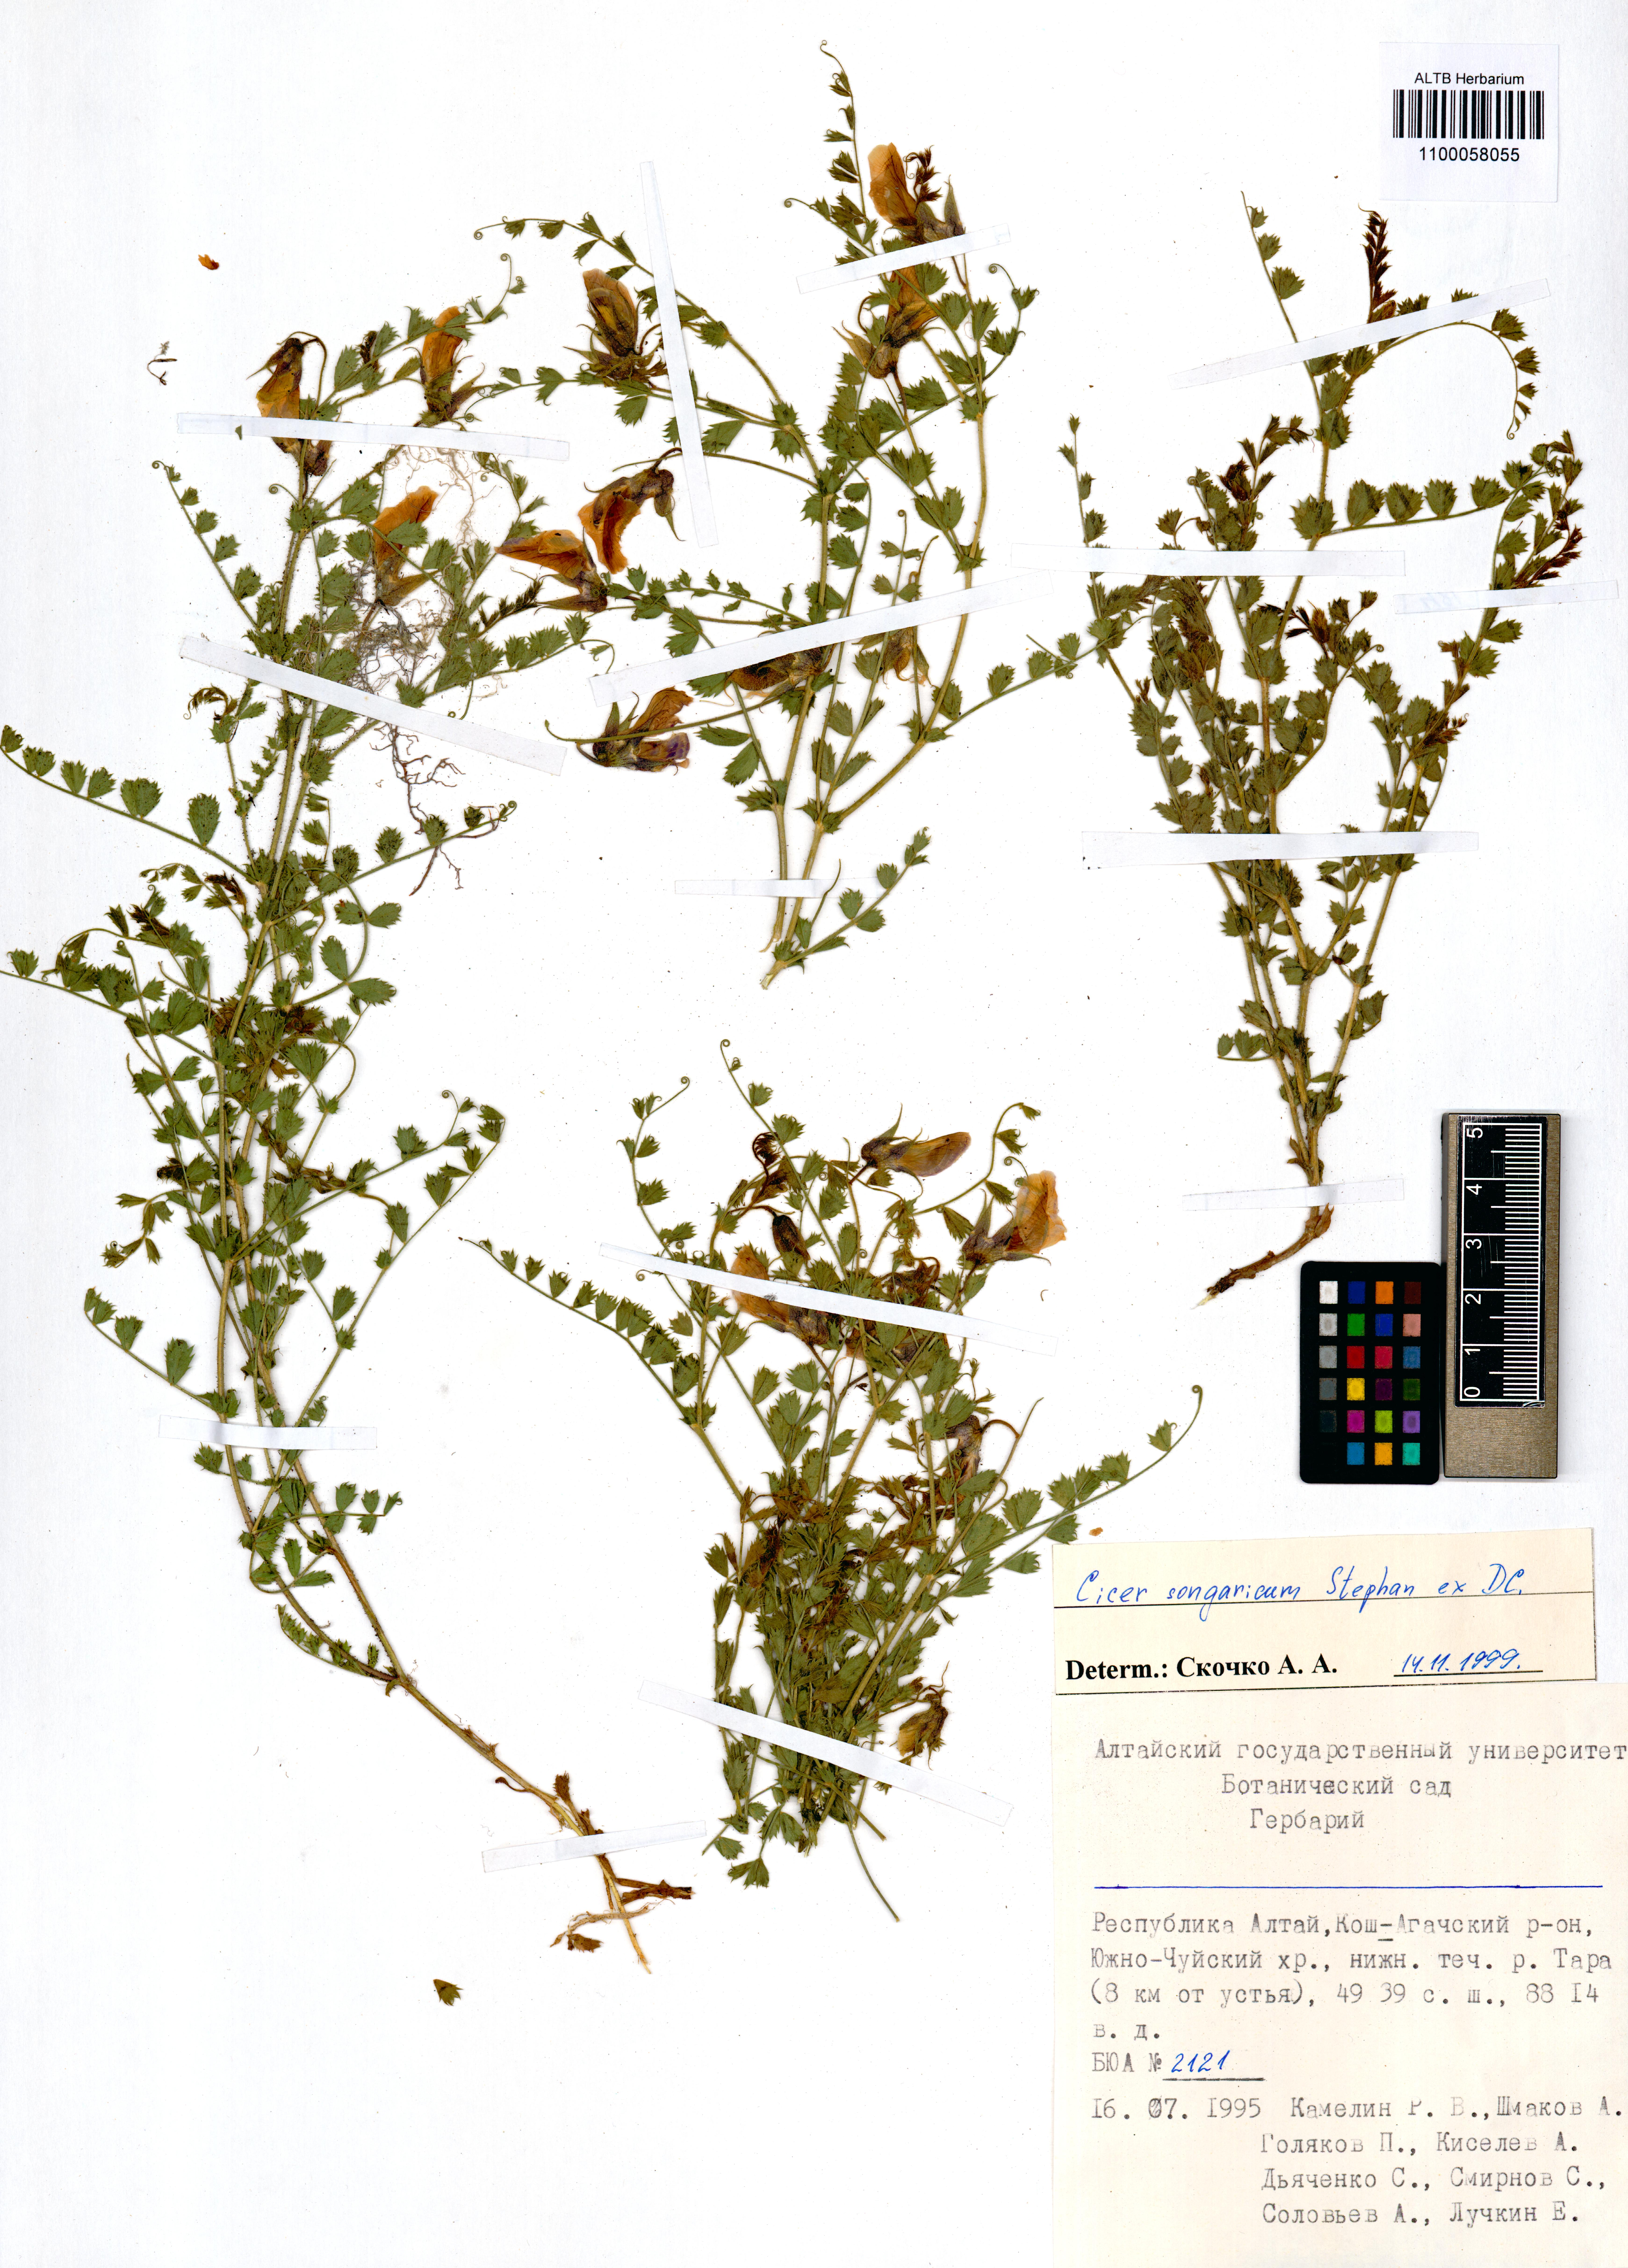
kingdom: Plantae
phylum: Tracheophyta
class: Magnoliopsida
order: Fabales
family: Fabaceae
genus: Cicer
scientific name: Cicer songaricum
